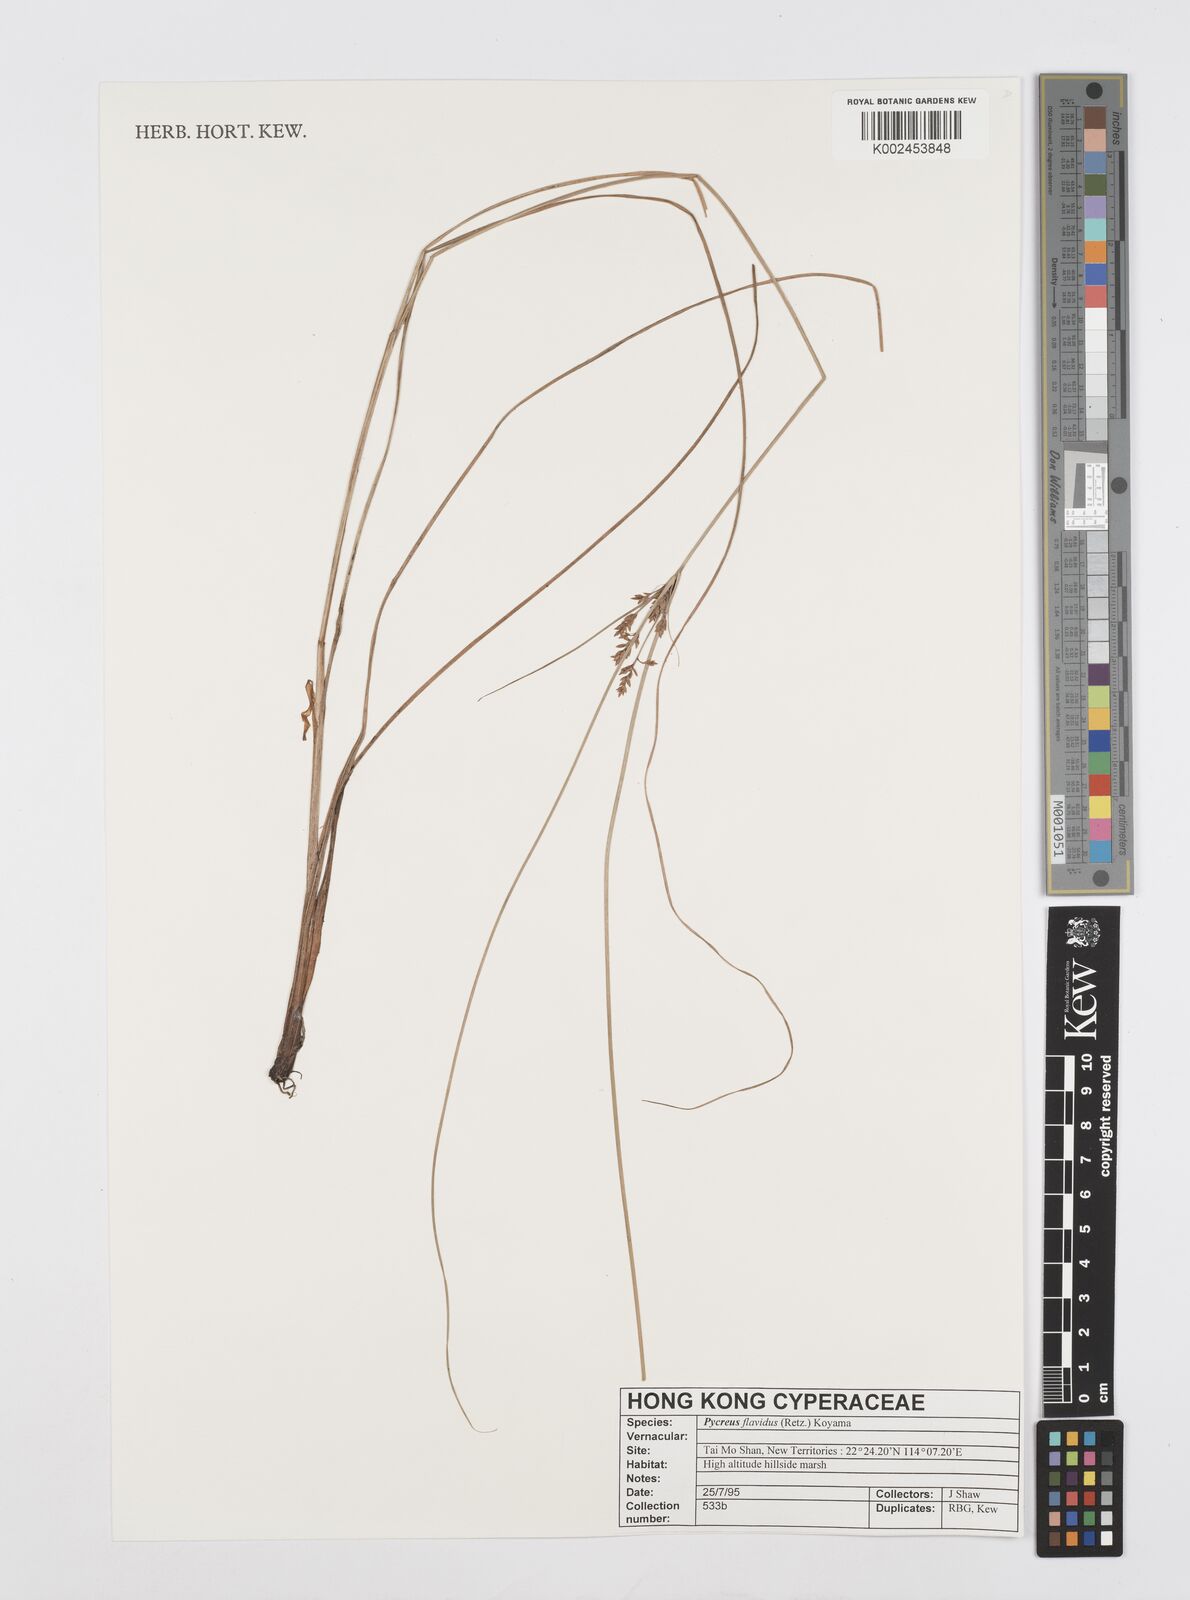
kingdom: Plantae
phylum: Tracheophyta
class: Liliopsida
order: Poales
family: Cyperaceae
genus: Cyperus
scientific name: Cyperus flavidus
